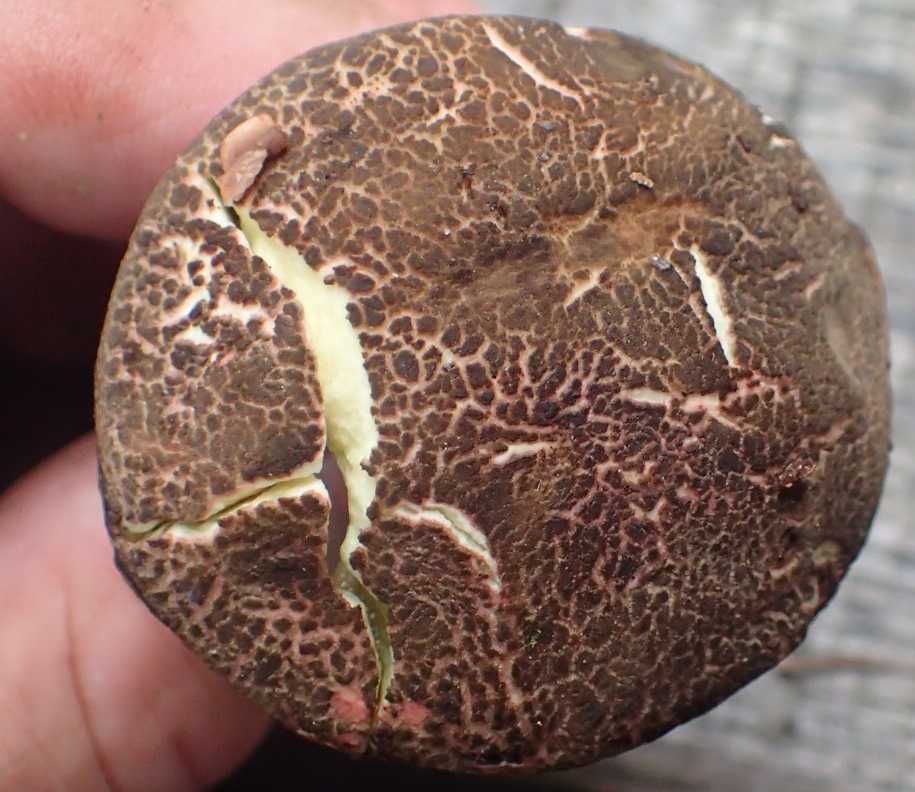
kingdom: Fungi
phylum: Basidiomycota
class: Agaricomycetes
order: Boletales
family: Boletaceae
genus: Xerocomellus
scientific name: Xerocomellus
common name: dværgrørhat
